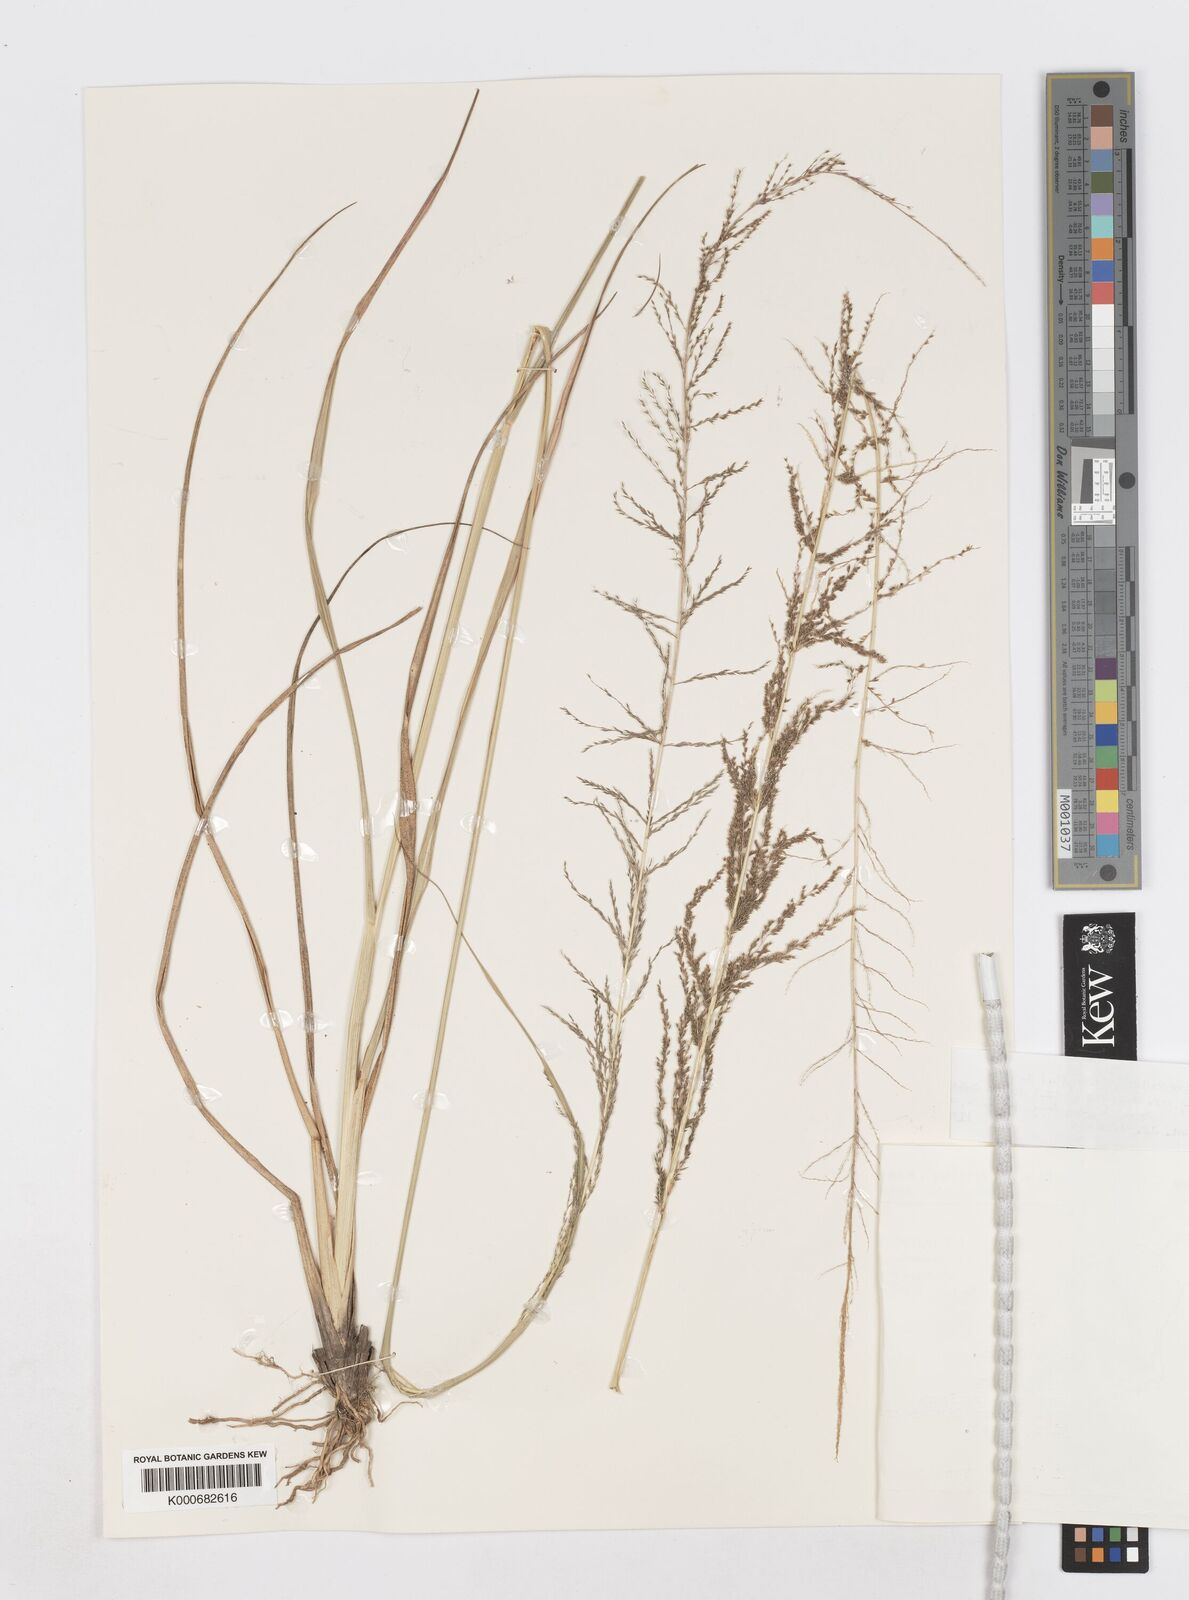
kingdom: Plantae
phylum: Tracheophyta
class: Liliopsida
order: Poales
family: Poaceae
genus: Sporobolus
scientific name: Sporobolus diandrus
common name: Tussock dropseed
